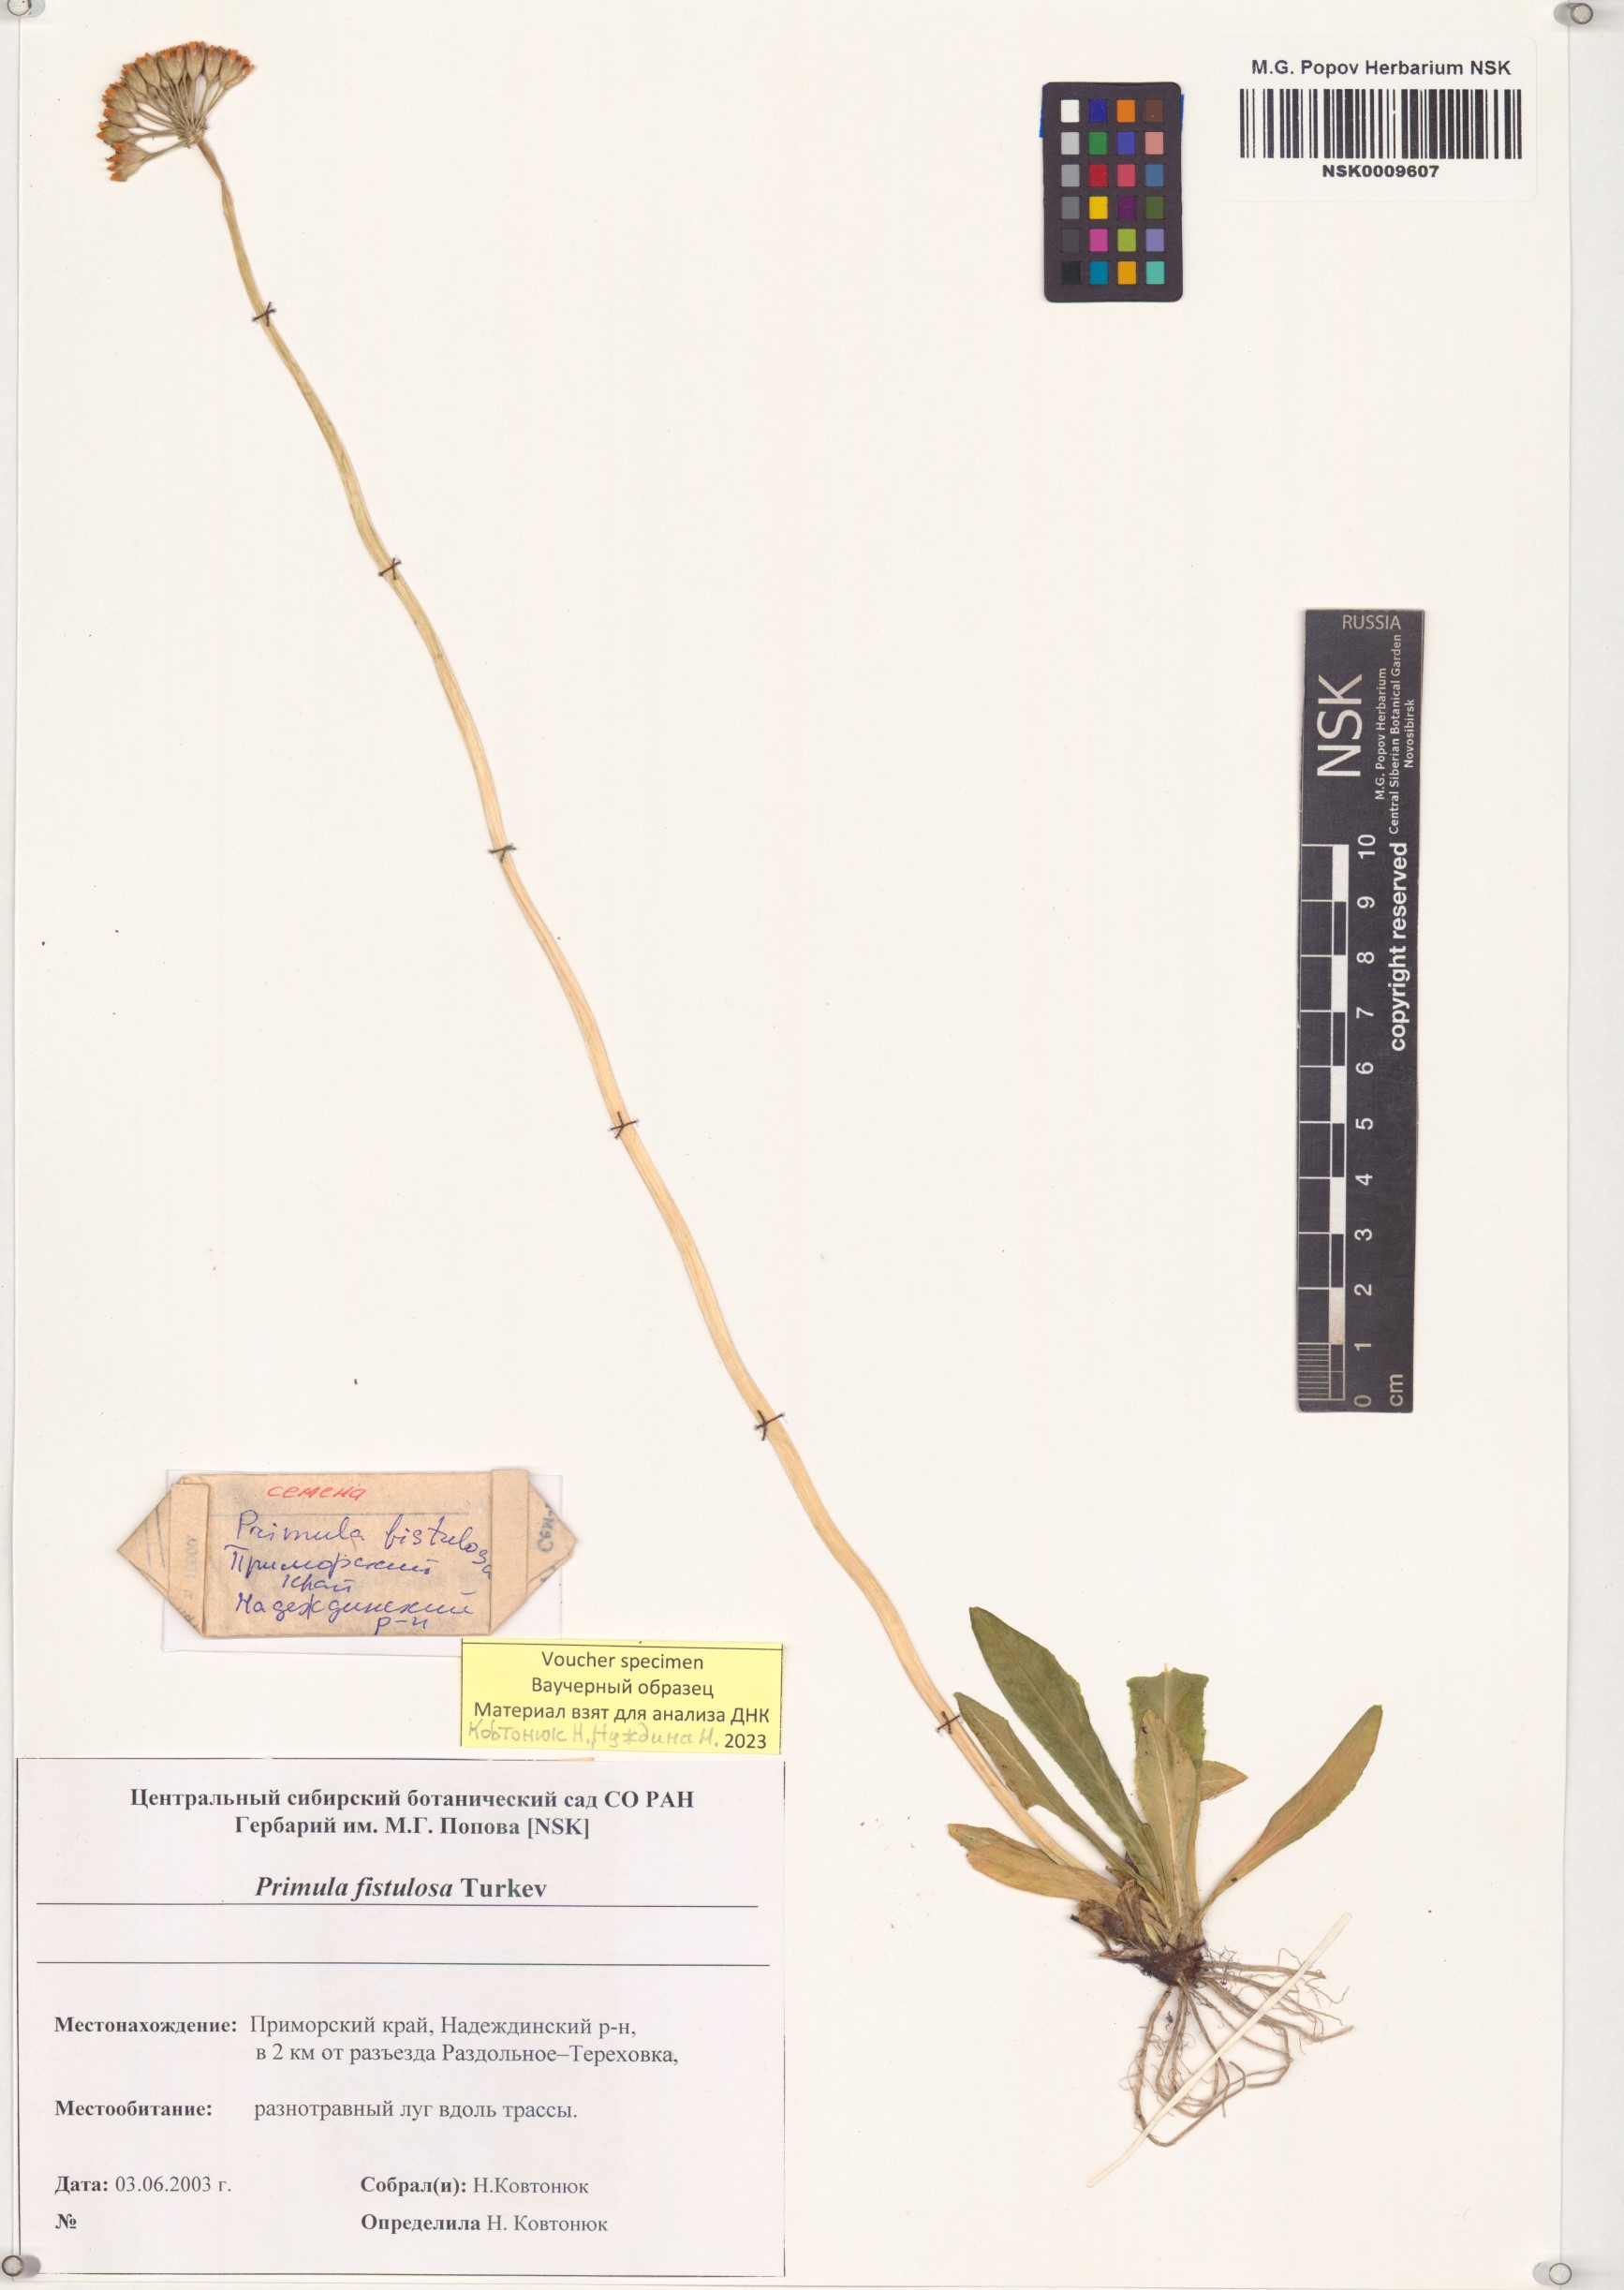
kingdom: Plantae
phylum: Tracheophyta
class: Magnoliopsida
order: Ericales
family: Primulaceae
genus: Primula
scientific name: Primula fistulosa
